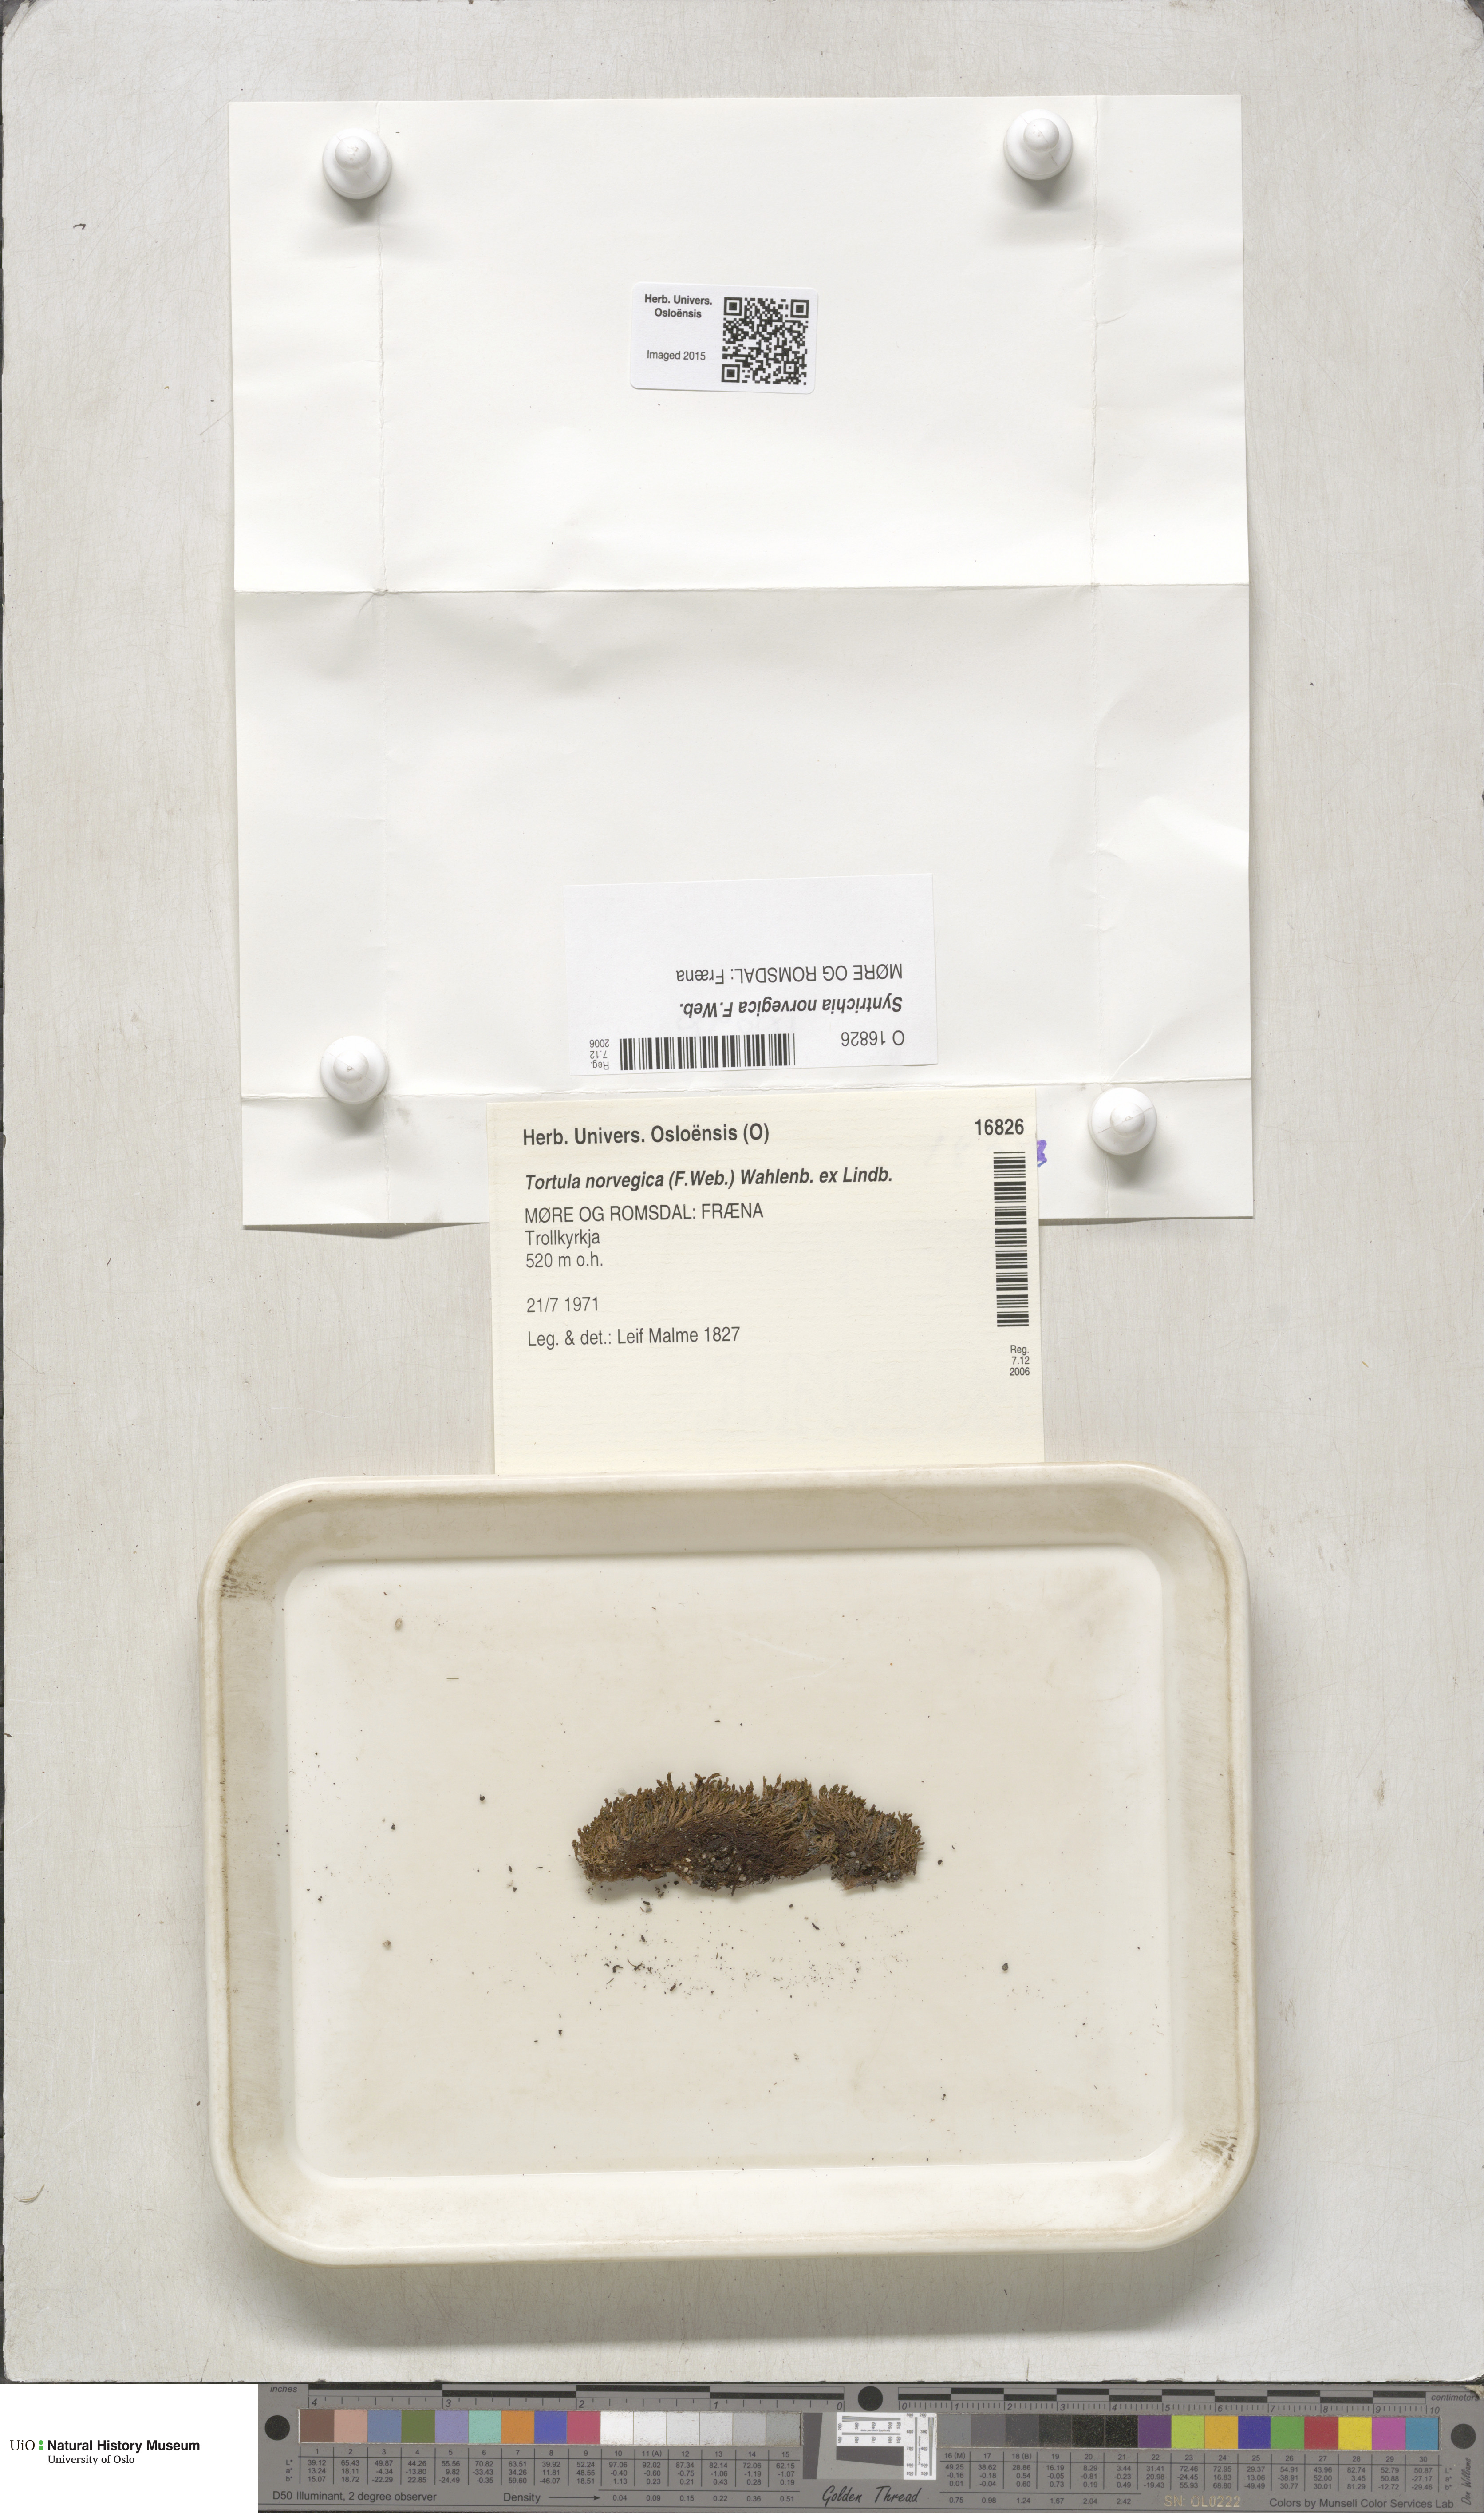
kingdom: Plantae
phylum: Bryophyta
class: Bryopsida
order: Pottiales
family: Pottiaceae
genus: Syntrichia
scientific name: Syntrichia norvegica
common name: Norway screw moss
